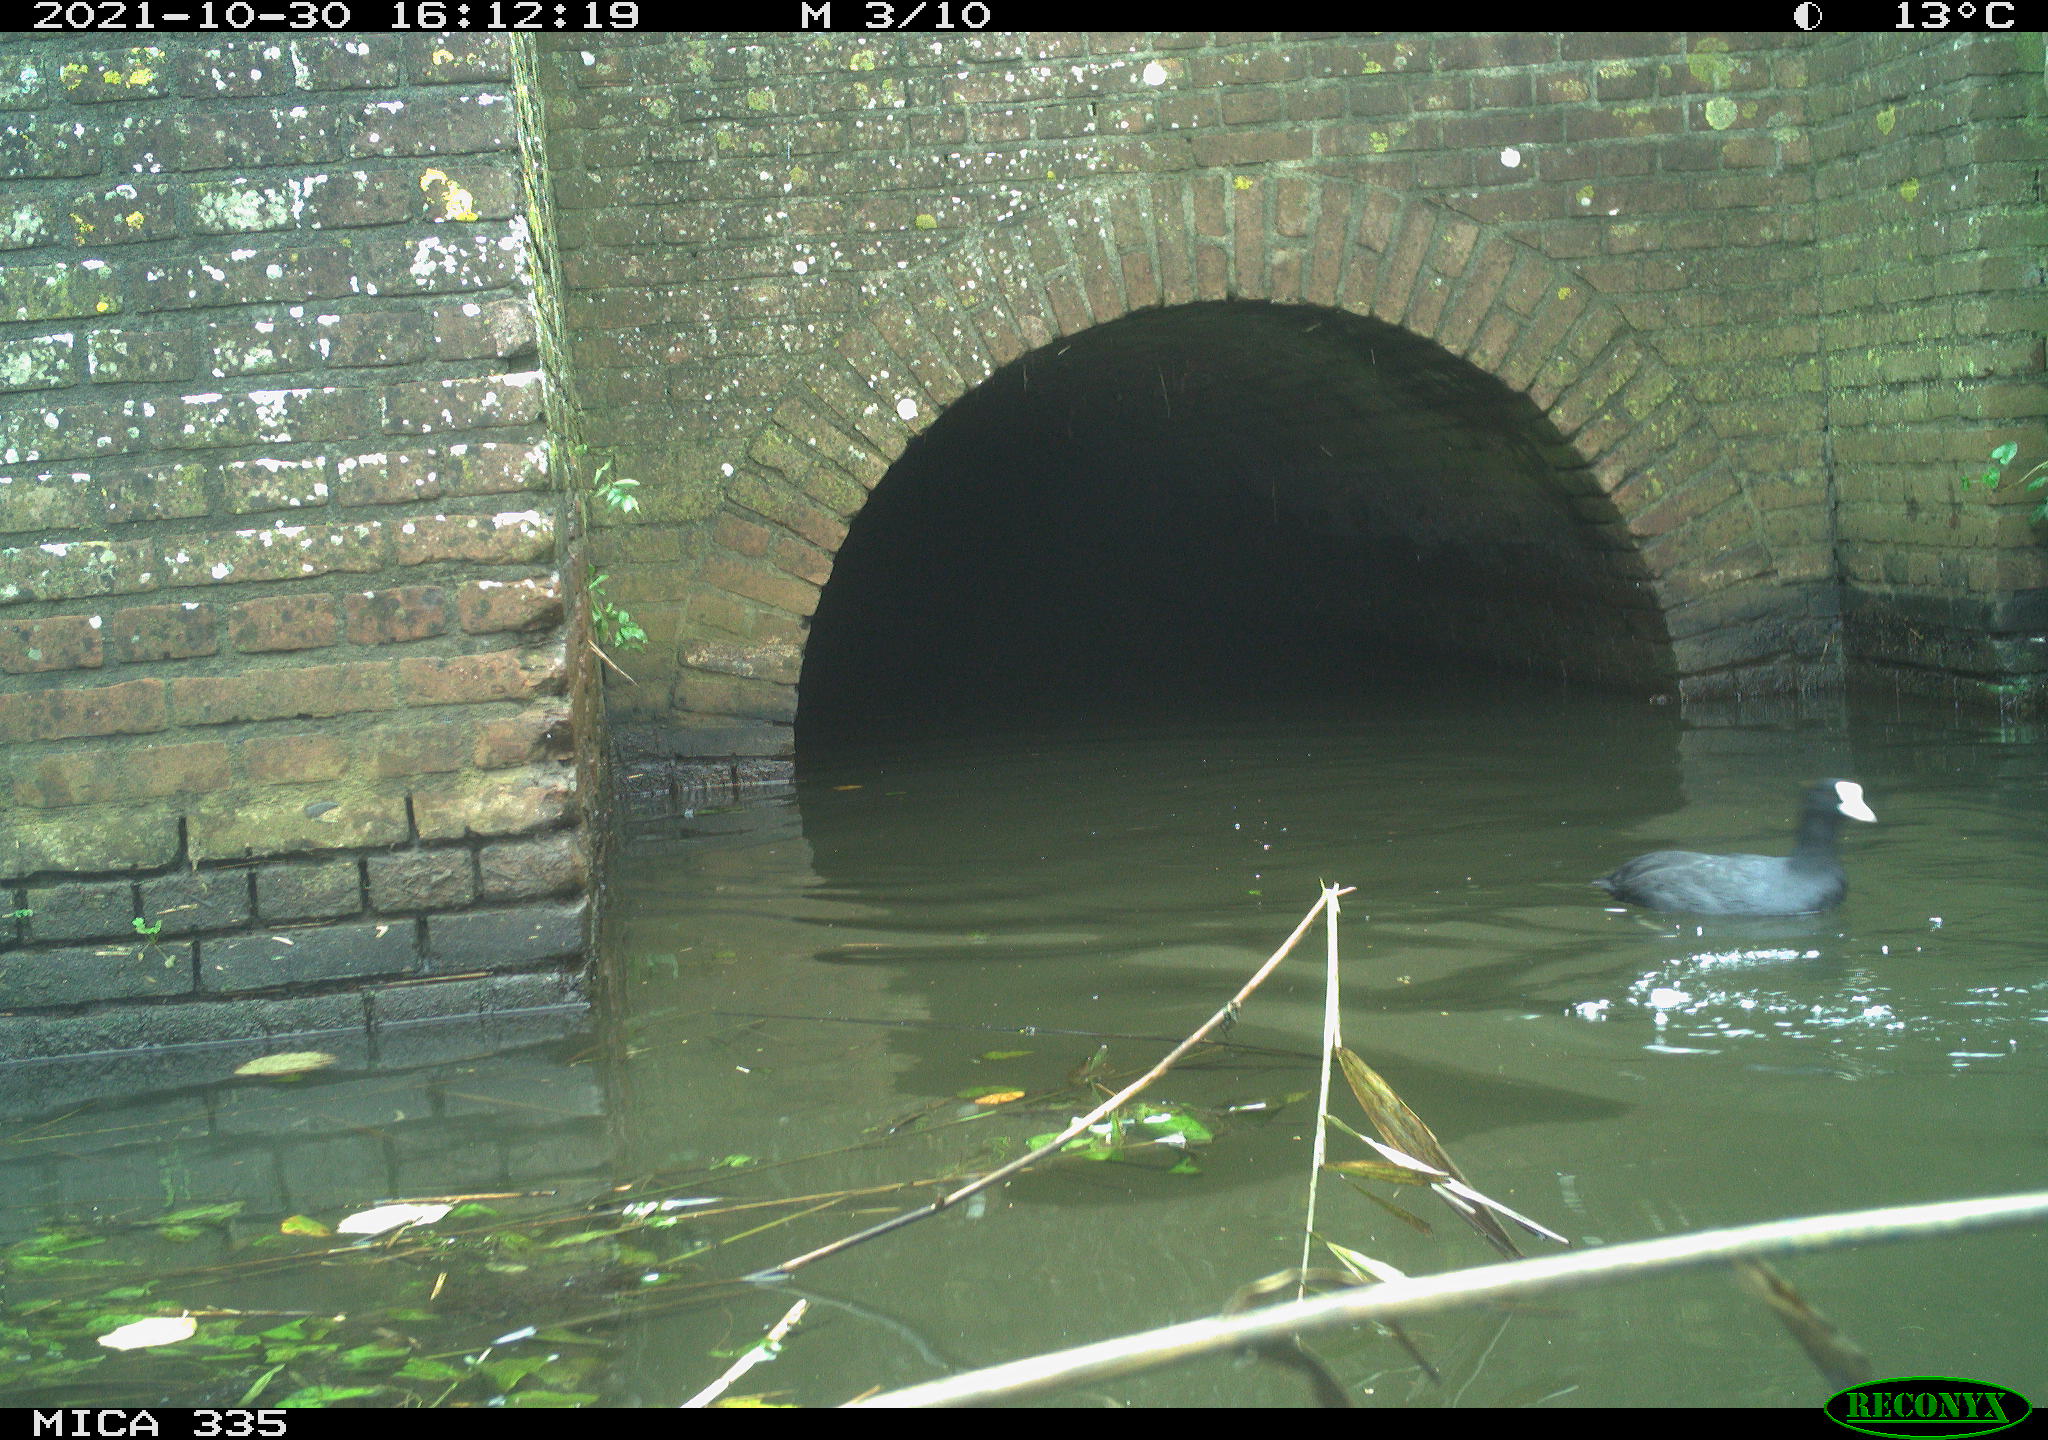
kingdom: Animalia
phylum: Chordata
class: Aves
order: Gruiformes
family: Rallidae
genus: Fulica
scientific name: Fulica atra
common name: Eurasian coot
